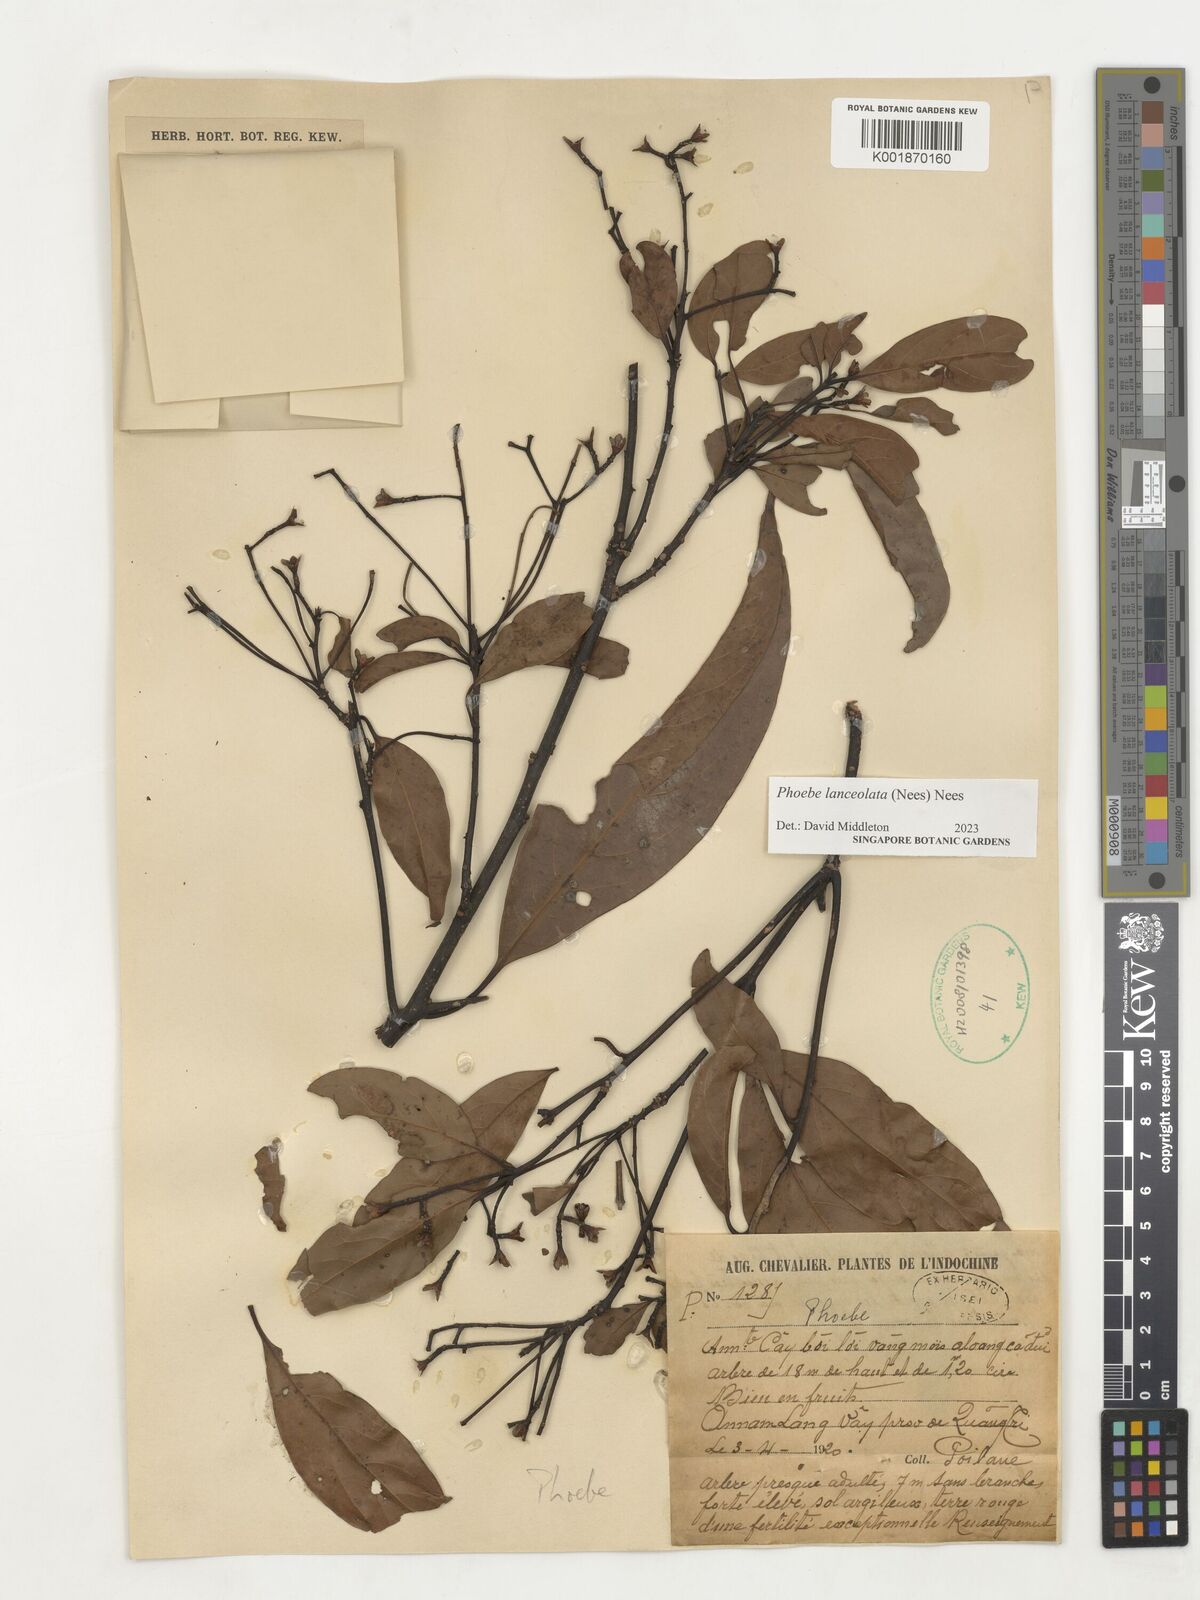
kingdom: Plantae
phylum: Tracheophyta
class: Magnoliopsida
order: Laurales
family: Lauraceae
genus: Phoebe
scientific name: Phoebe lanceolata
